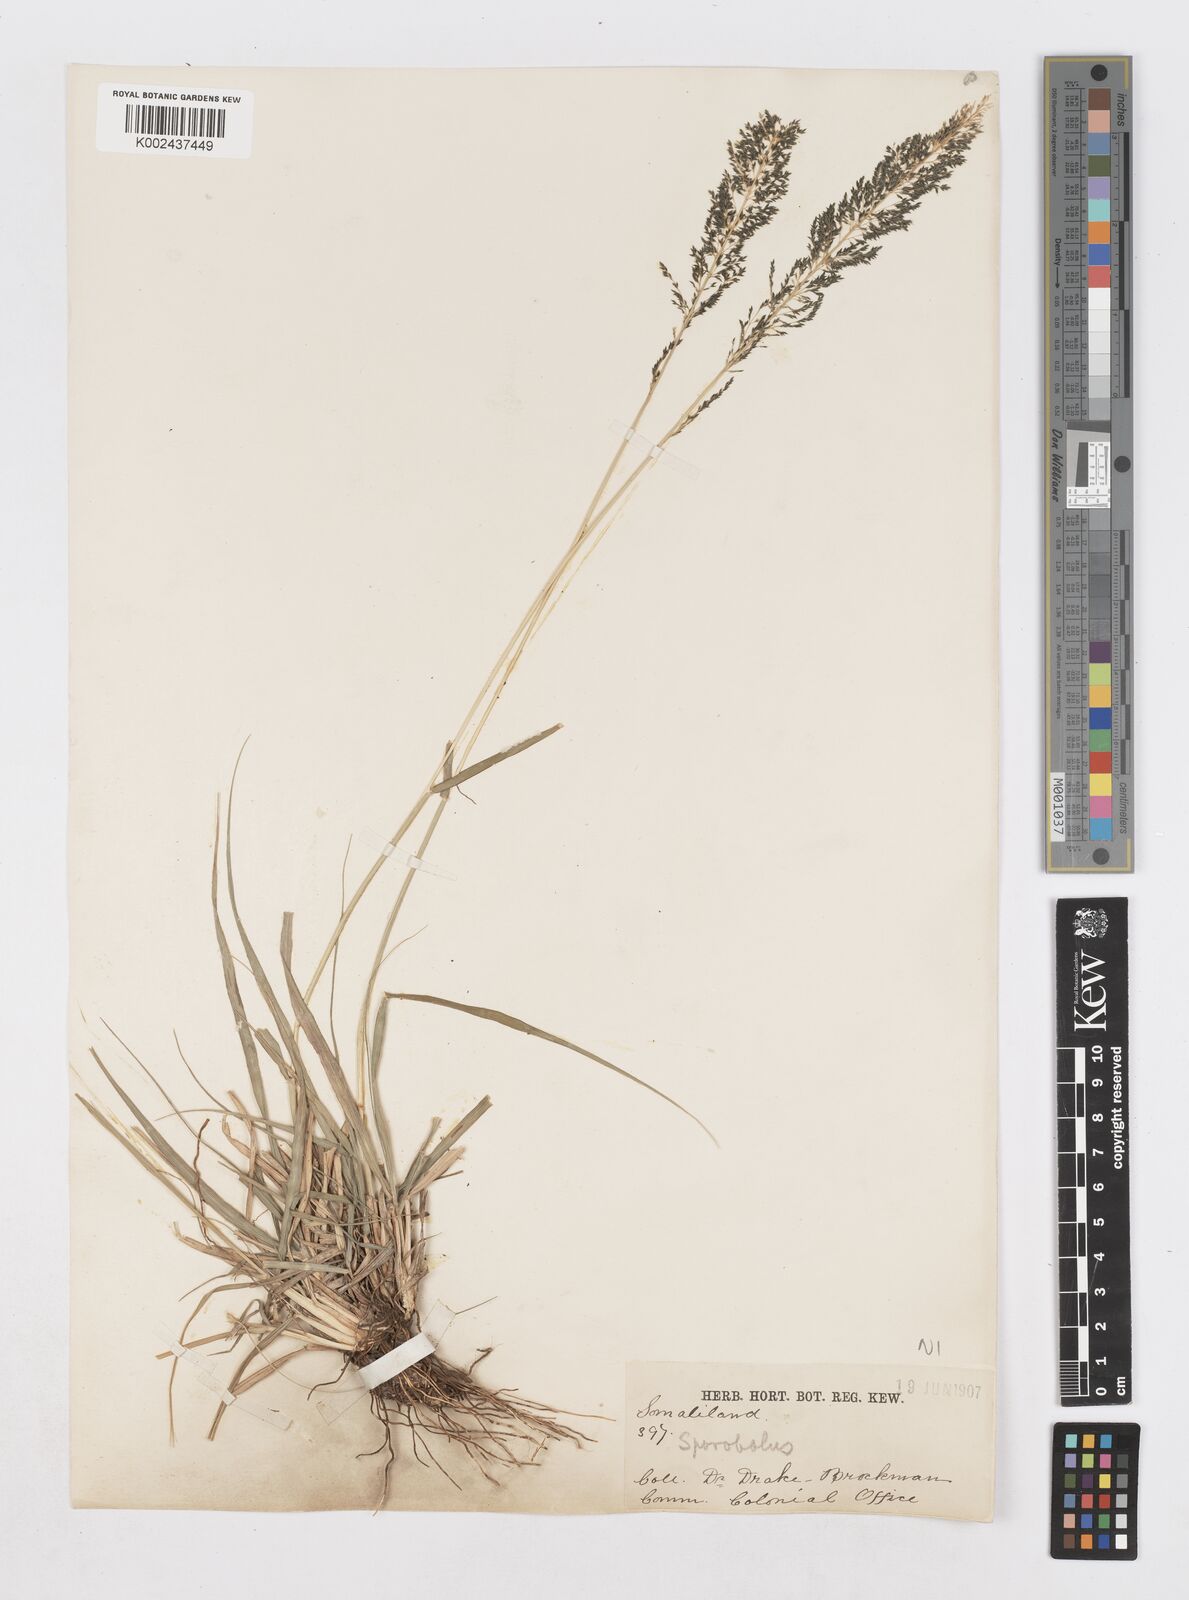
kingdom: Plantae
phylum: Tracheophyta
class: Liliopsida
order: Poales
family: Poaceae
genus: Sporobolus
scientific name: Sporobolus fimbriatus
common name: Fringed dropseed
